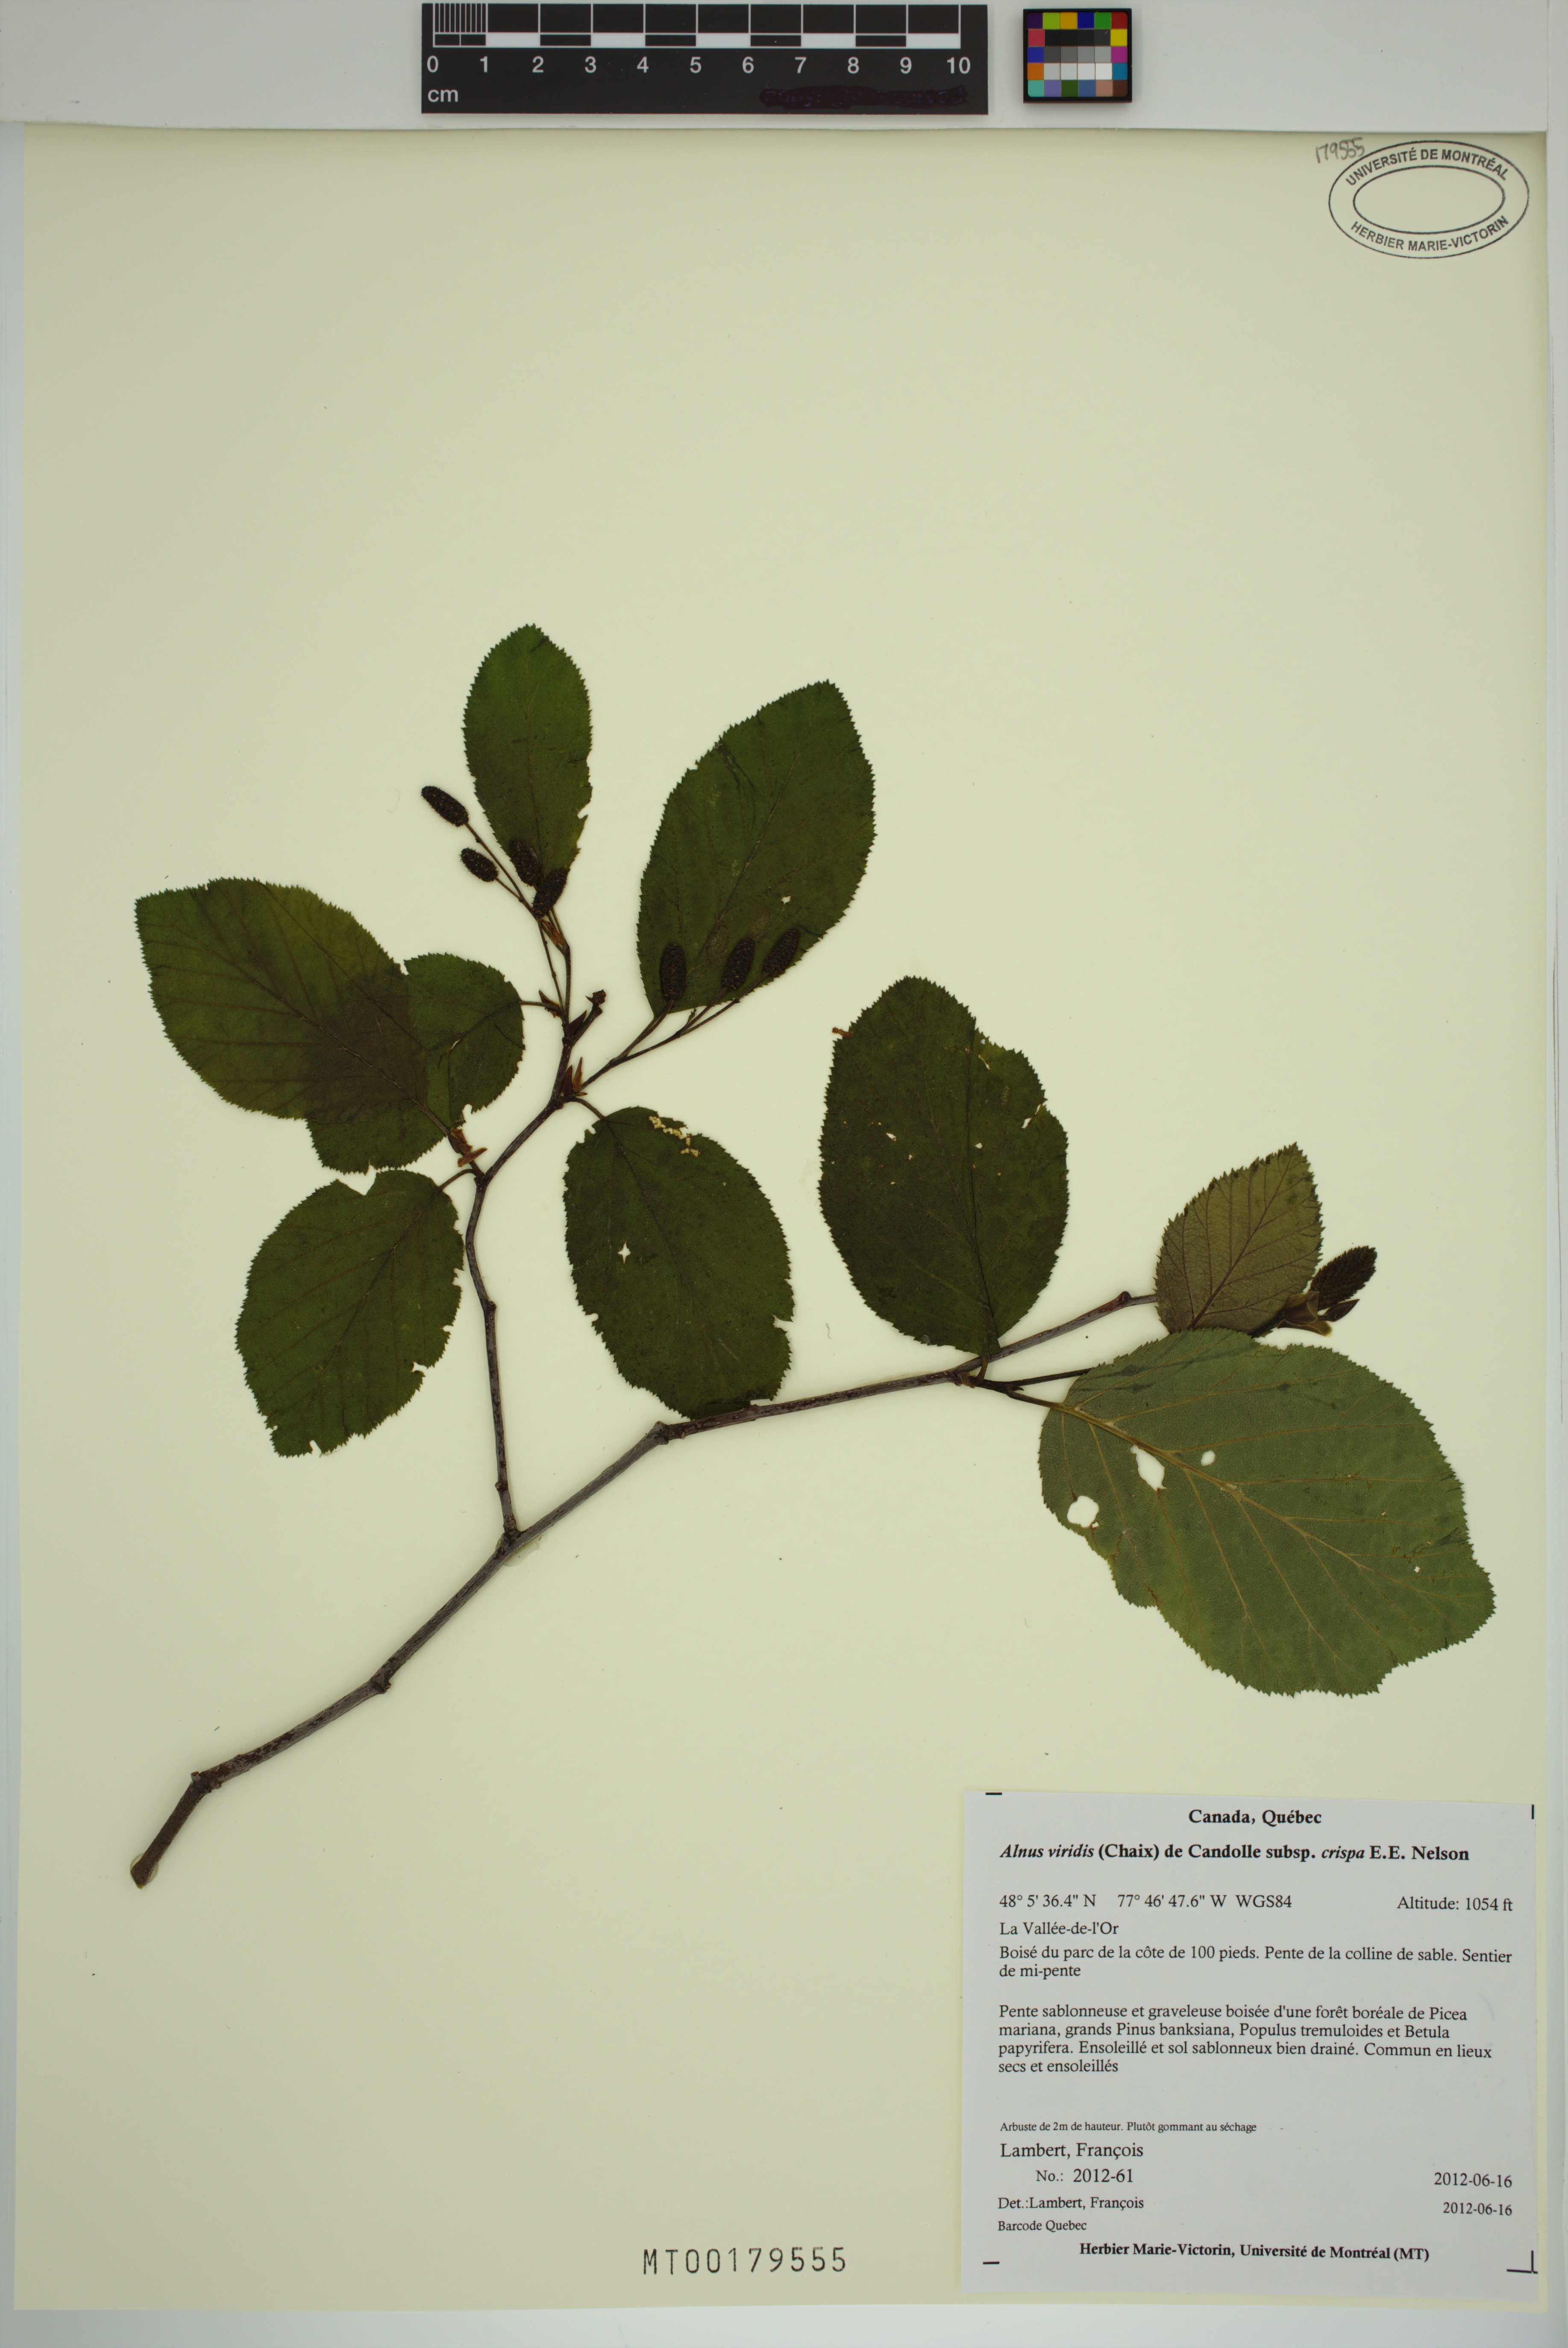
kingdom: Plantae
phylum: Tracheophyta
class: Magnoliopsida
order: Fagales
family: Betulaceae
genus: Alnus
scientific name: Alnus alnobetula
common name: Green alder
